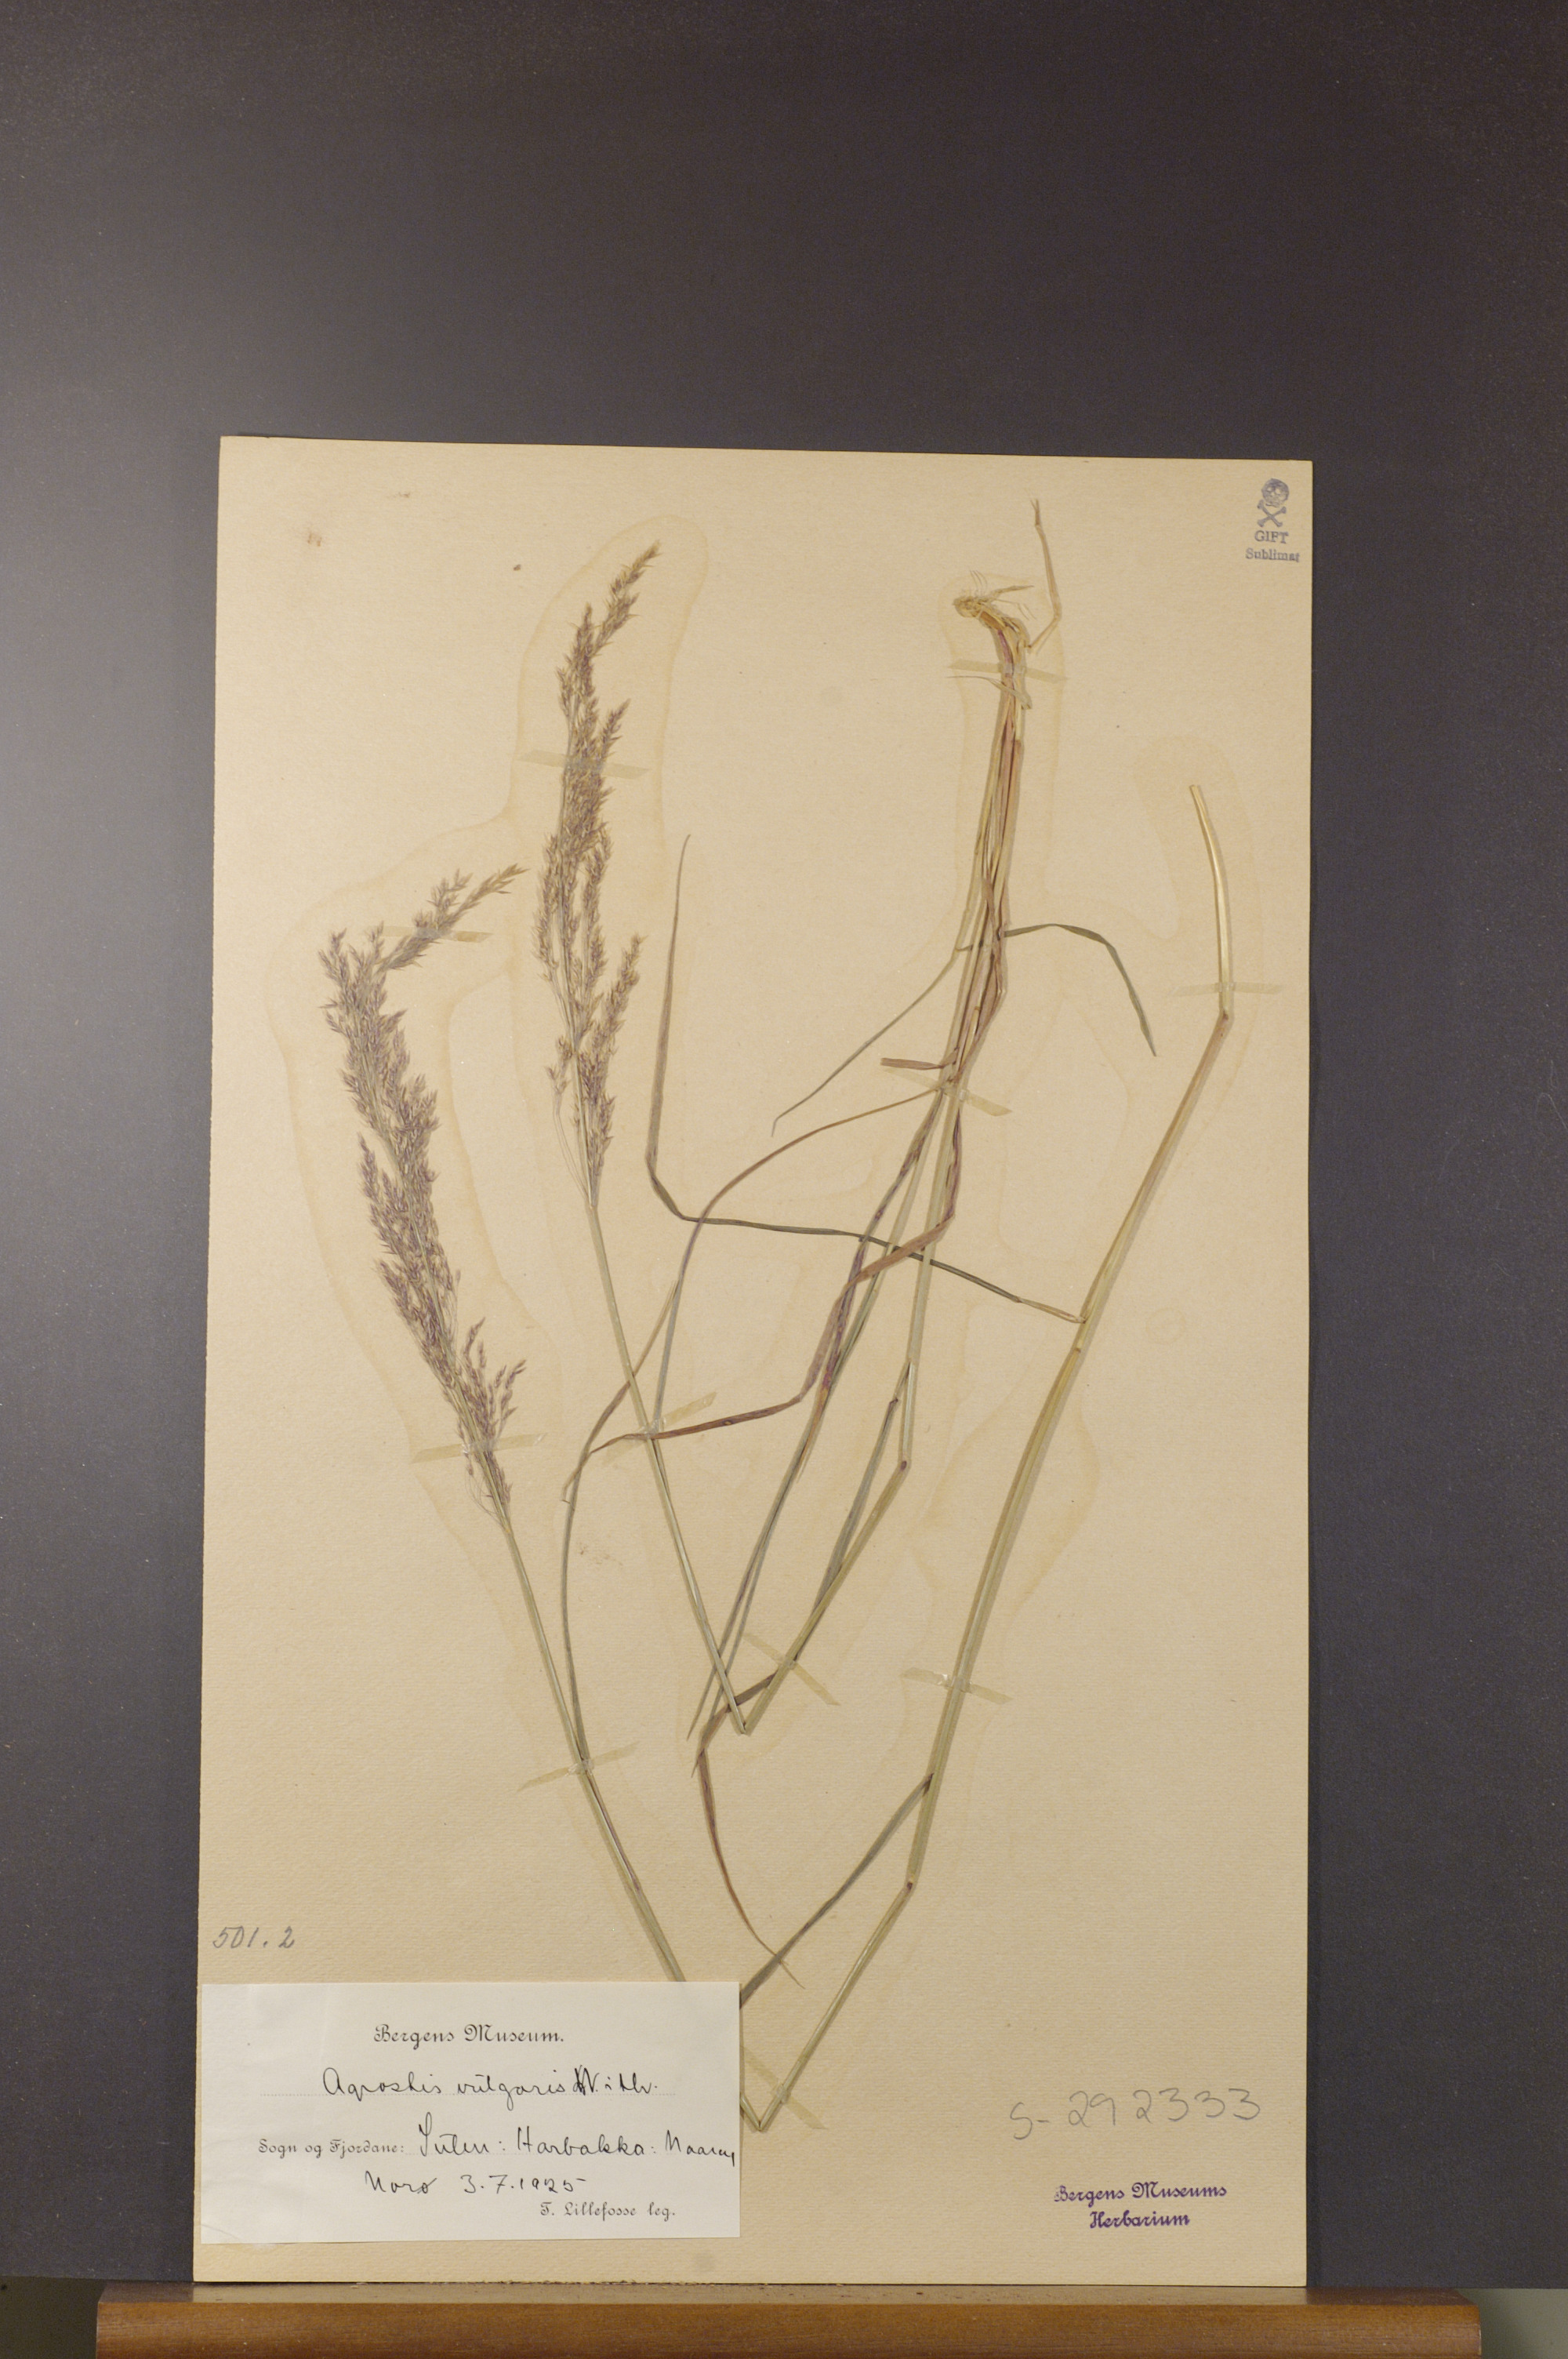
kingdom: Plantae
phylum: Tracheophyta
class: Liliopsida
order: Poales
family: Poaceae
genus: Agrostis
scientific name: Agrostis capillaris
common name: Colonial bentgrass
